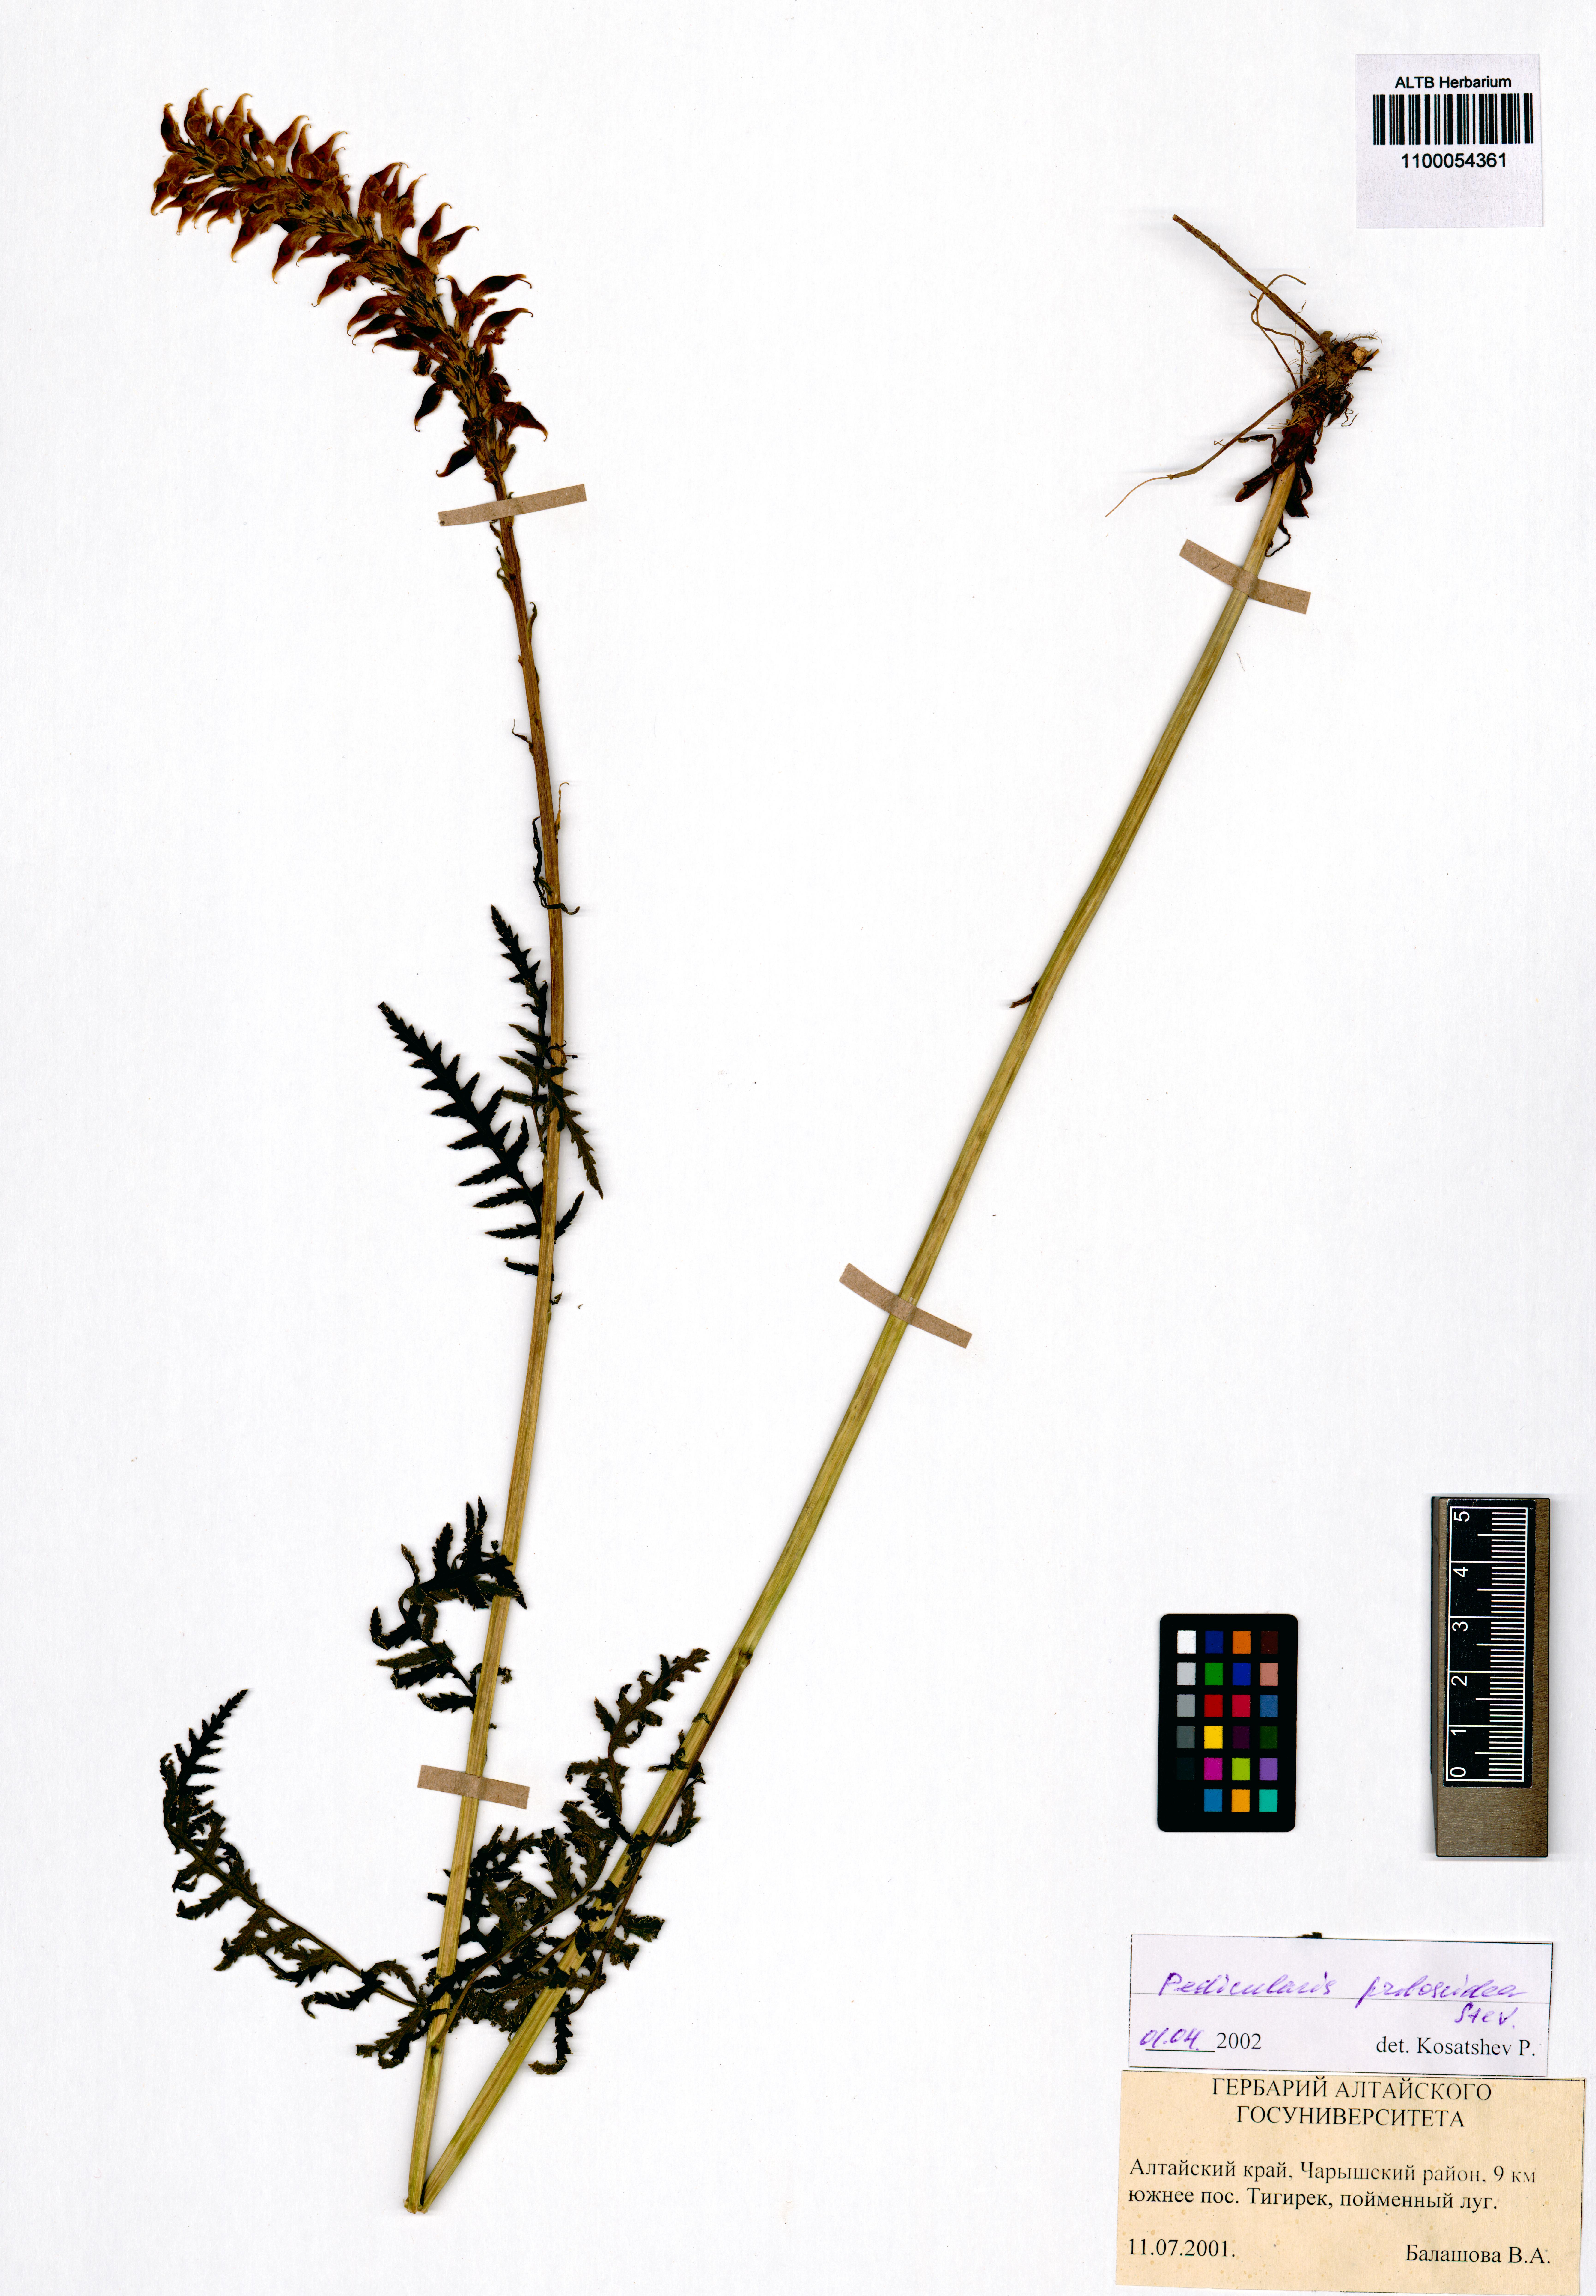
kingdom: Plantae
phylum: Tracheophyta
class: Magnoliopsida
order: Lamiales
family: Orobanchaceae
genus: Pedicularis
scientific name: Pedicularis proboscidea
